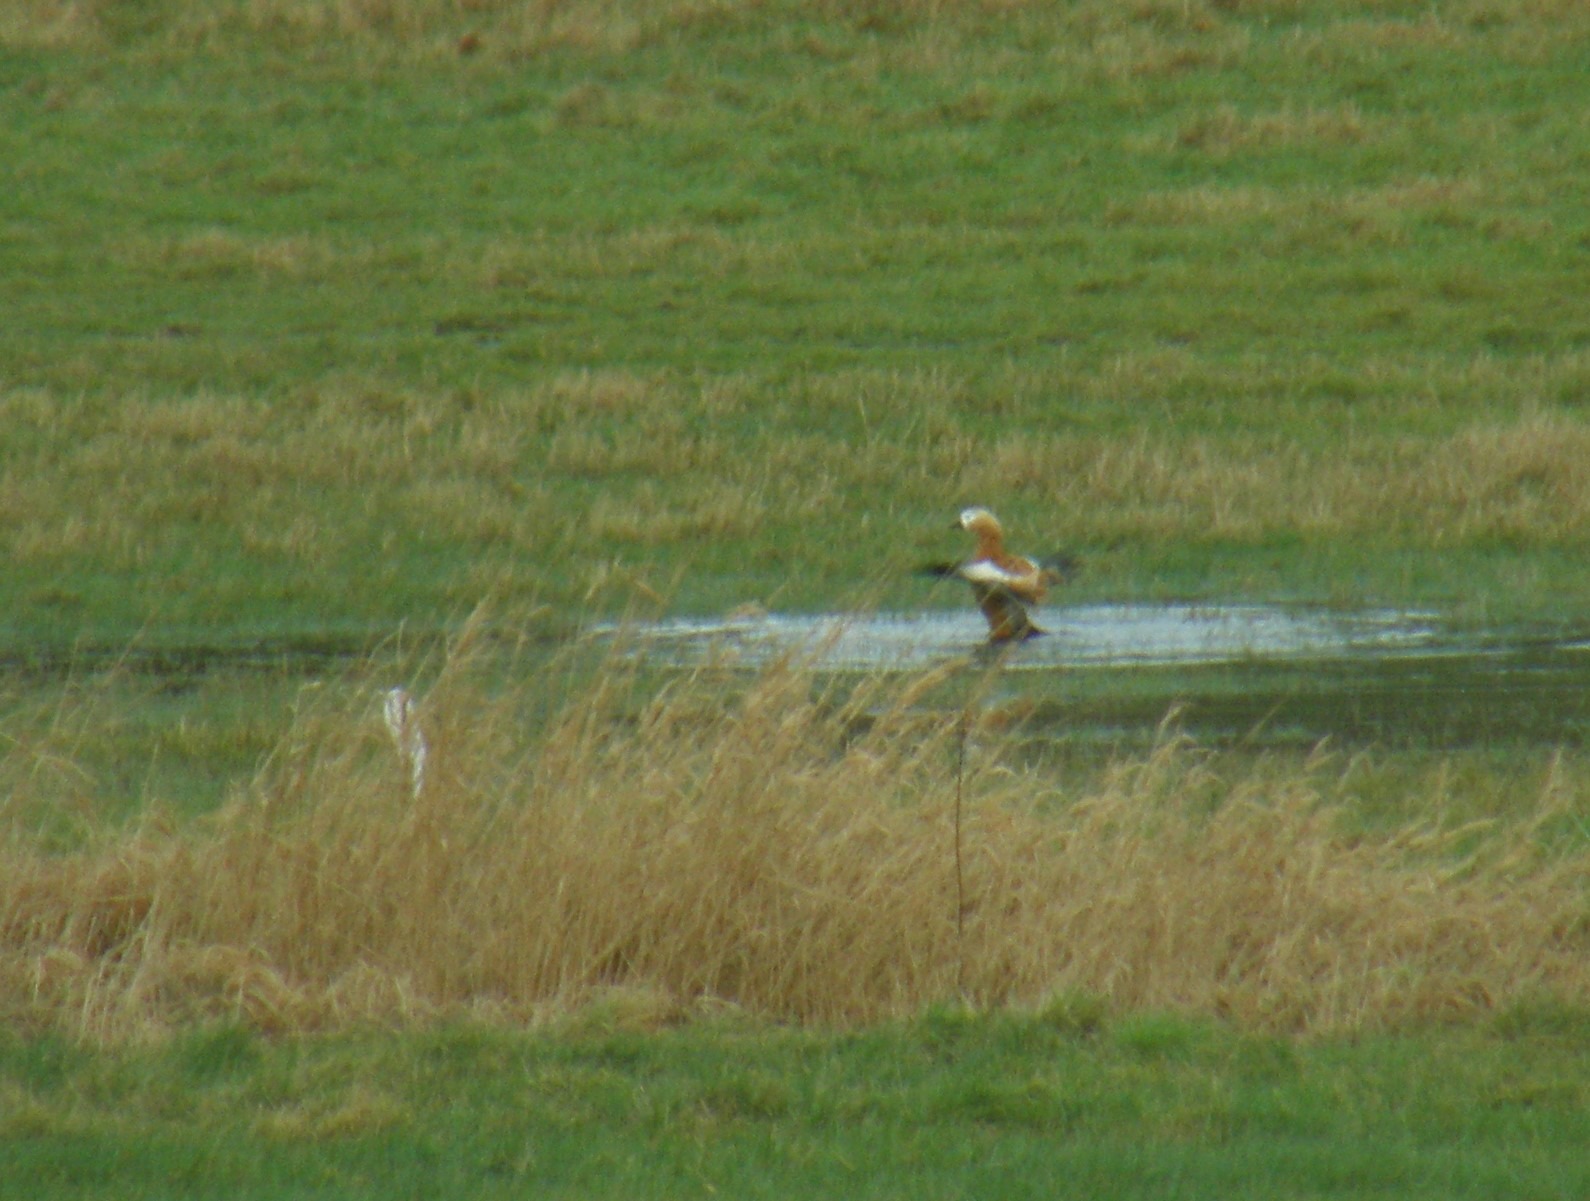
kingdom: Animalia
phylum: Chordata
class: Aves
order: Anseriformes
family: Anatidae
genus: Tadorna
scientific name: Tadorna ferruginea
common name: Rustand
